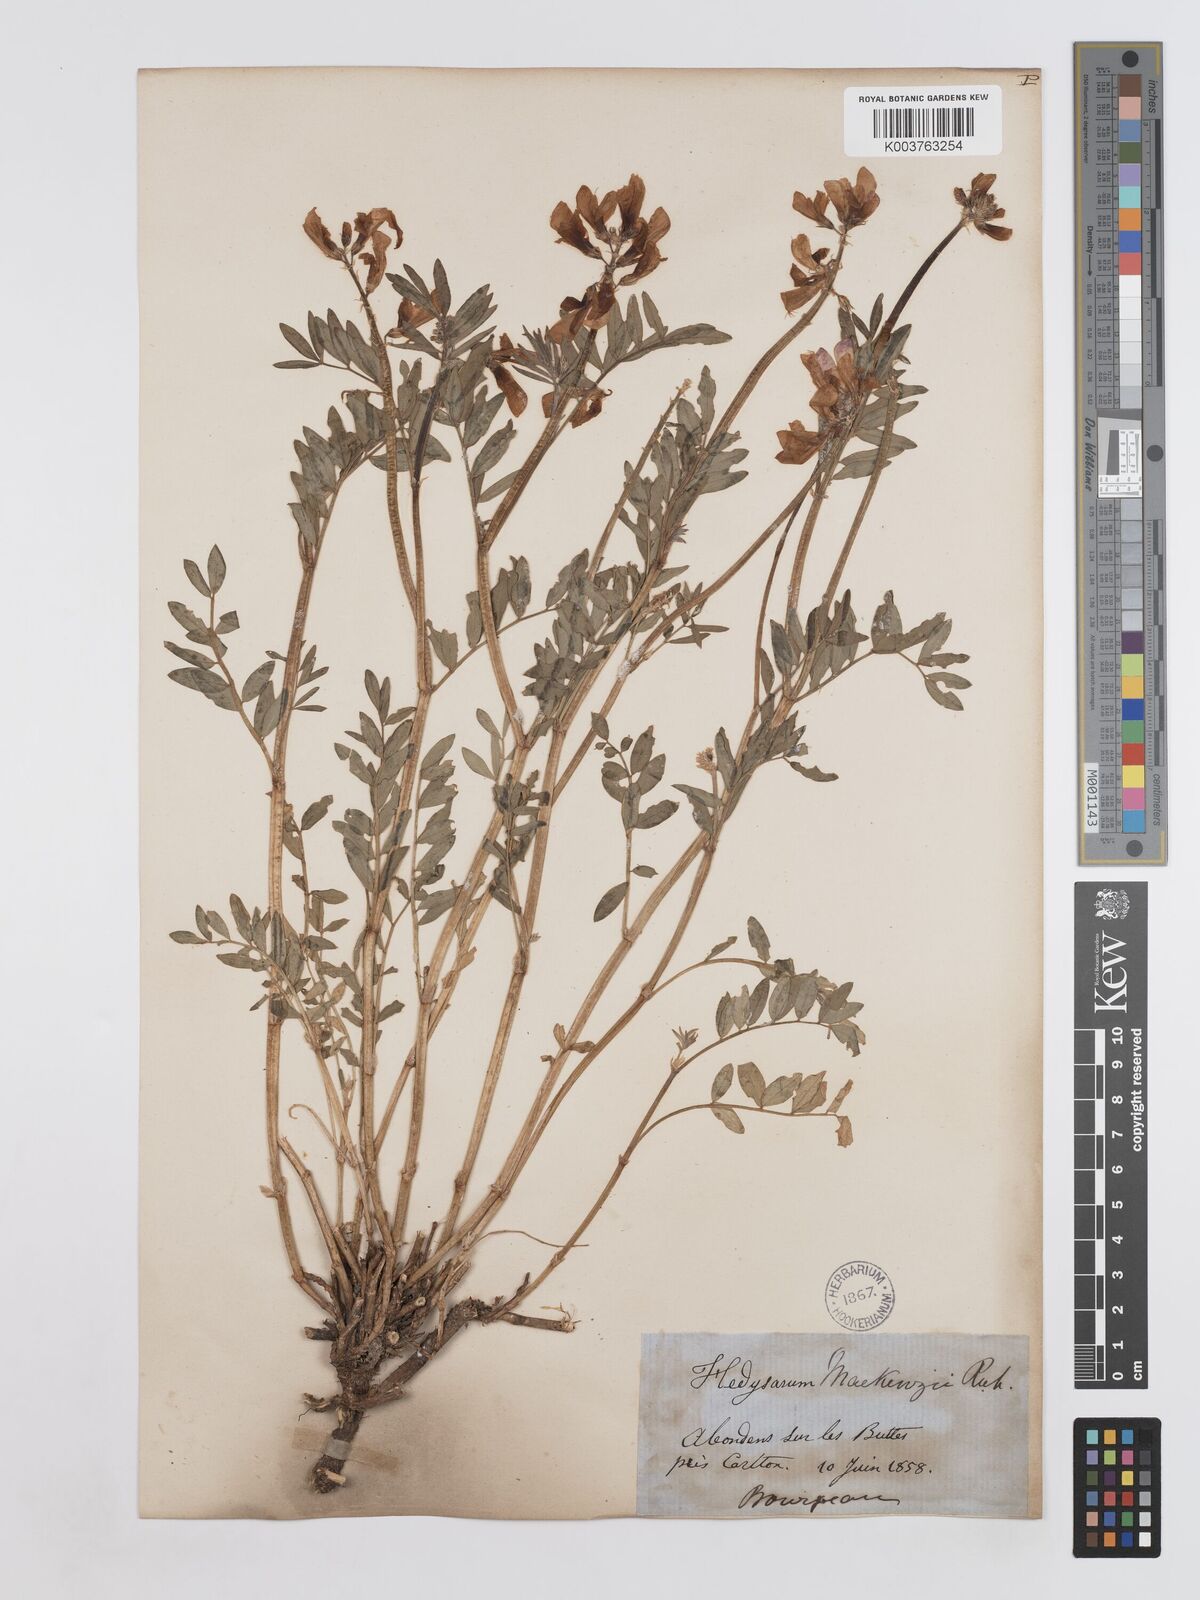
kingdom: Plantae
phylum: Tracheophyta
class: Magnoliopsida
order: Fabales
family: Fabaceae
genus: Hedysarum
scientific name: Hedysarum boreale
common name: Northern sweet-vetch
